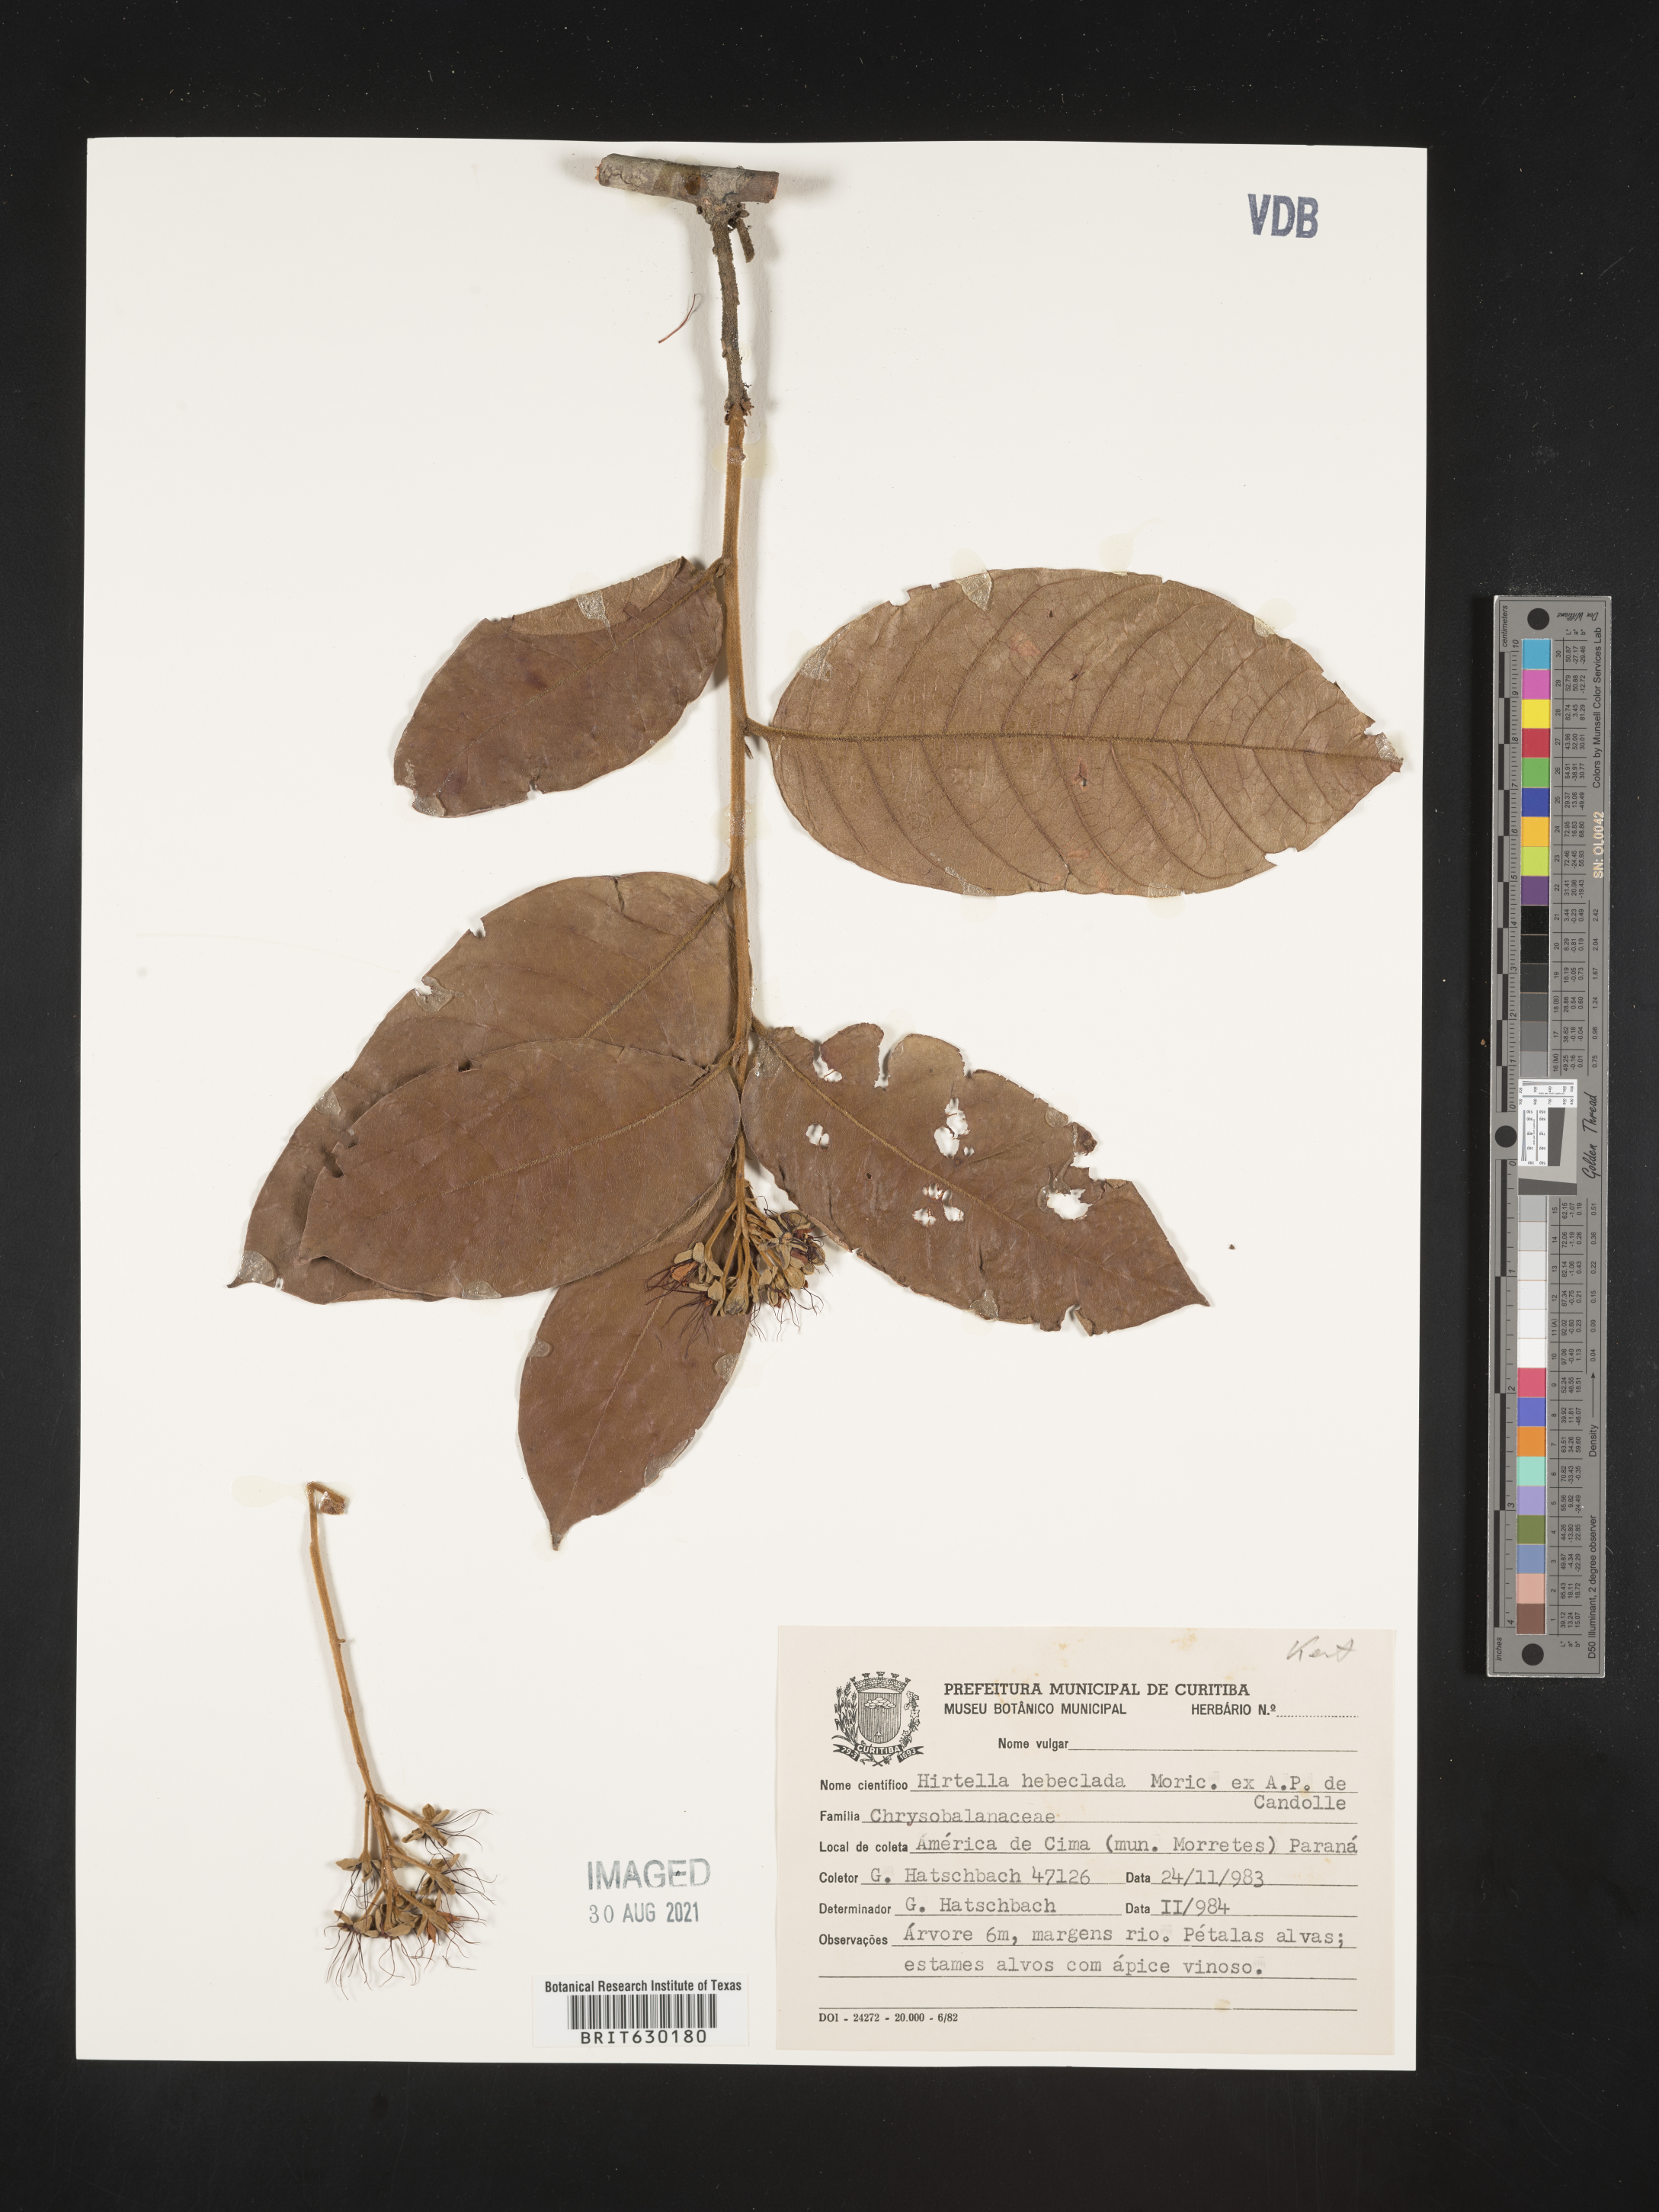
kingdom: Plantae
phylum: Tracheophyta
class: Magnoliopsida
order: Malpighiales
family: Chrysobalanaceae
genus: Hirtella
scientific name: Hirtella hebeclada
